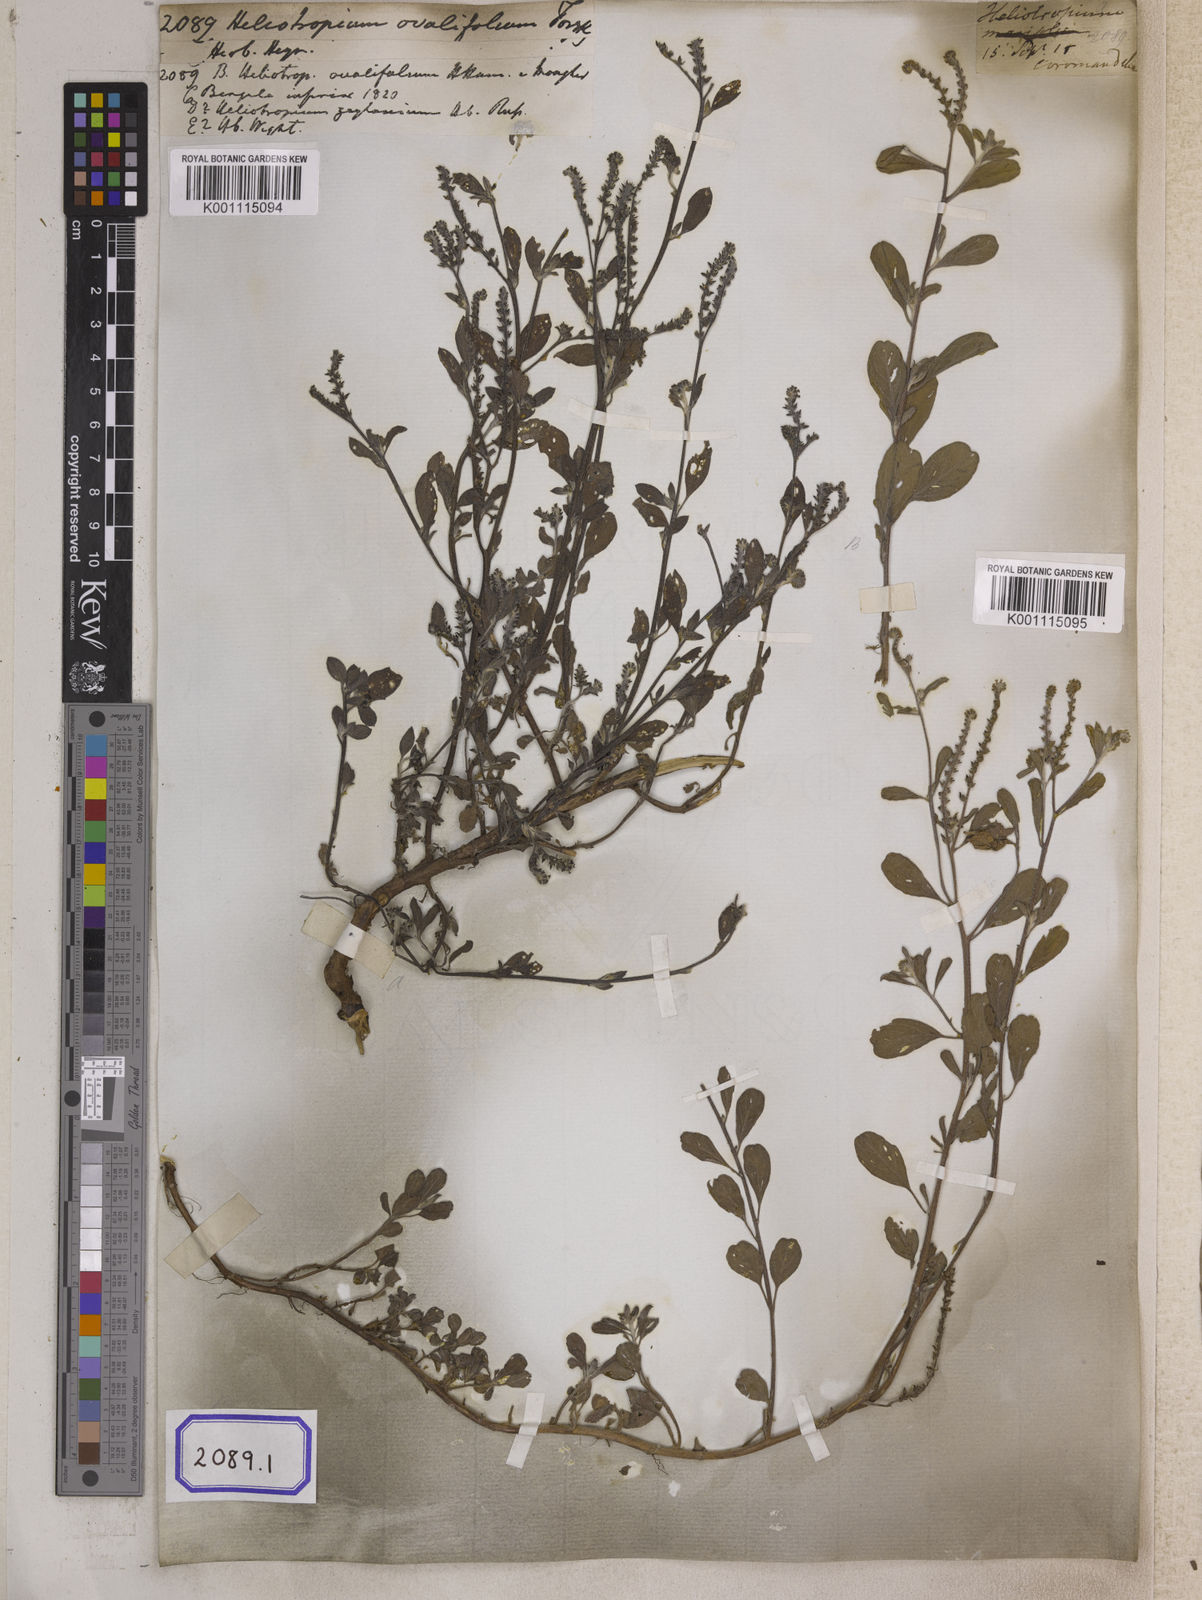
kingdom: Plantae
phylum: Tracheophyta
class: Magnoliopsida
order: Boraginales
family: Heliotropiaceae
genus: Euploca
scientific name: Euploca ovalifolia
